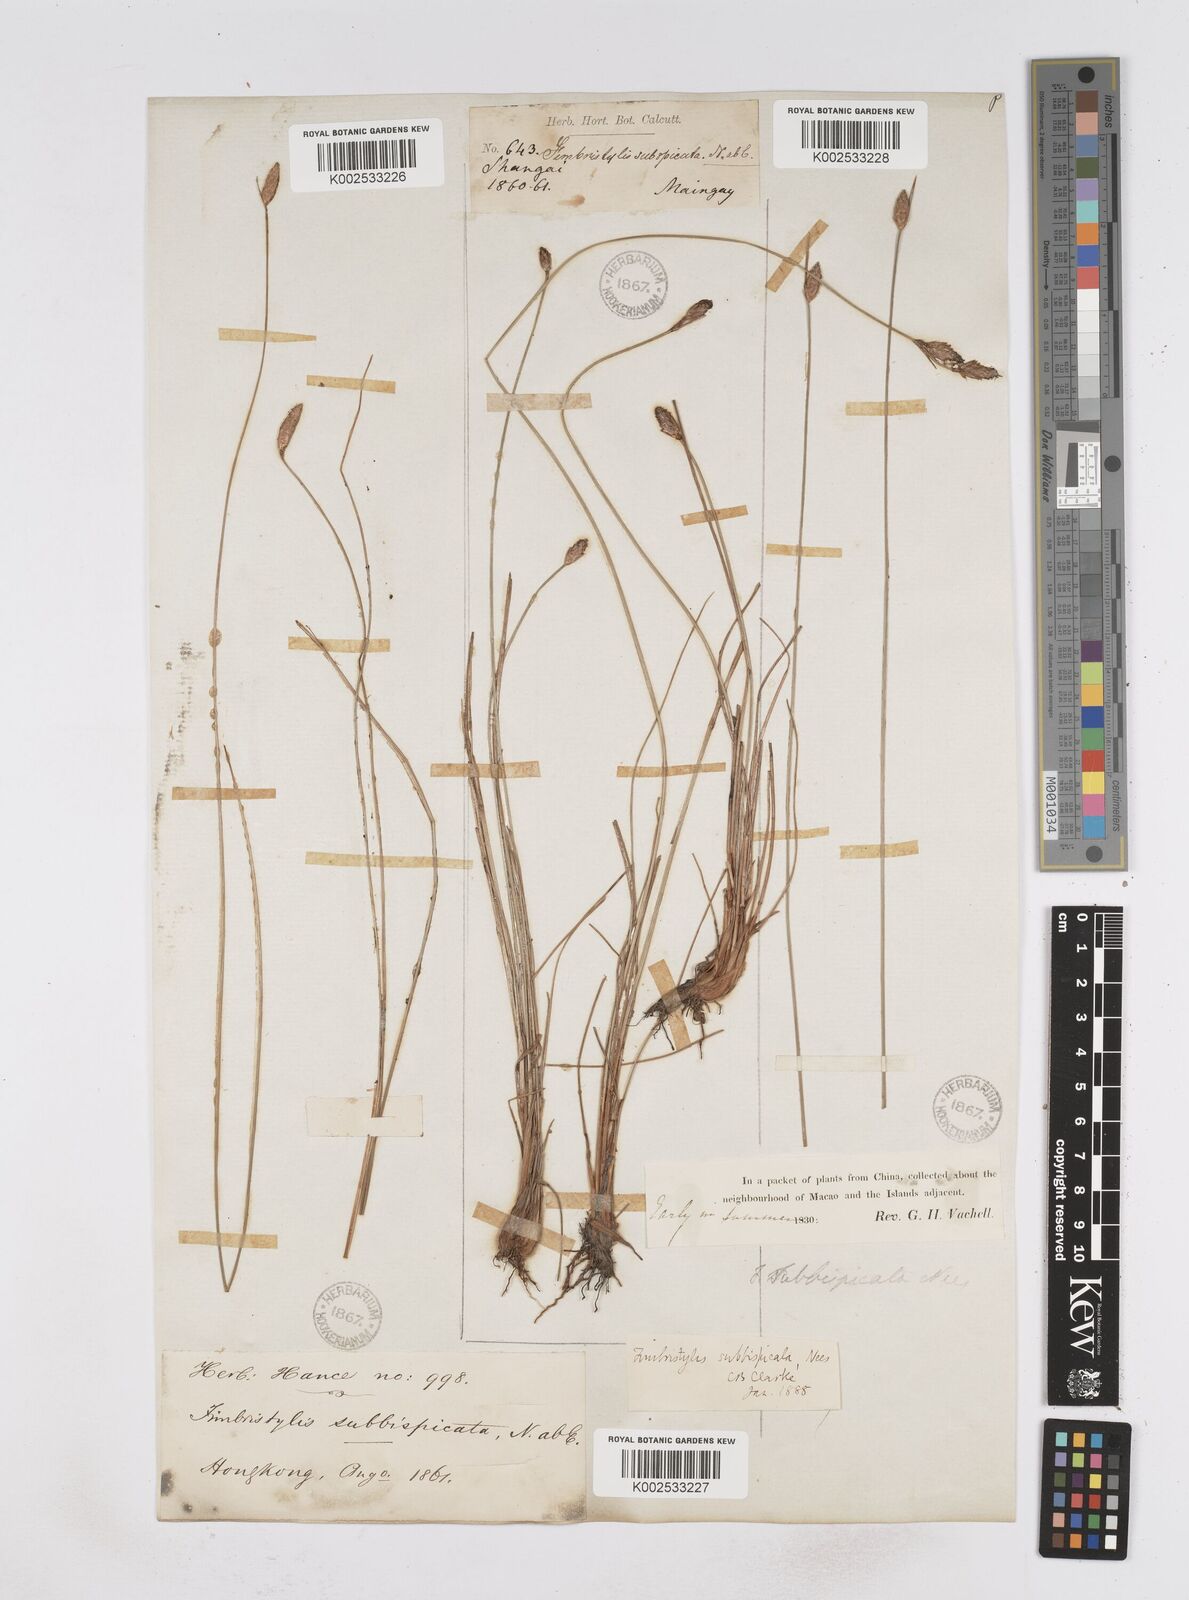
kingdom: Plantae
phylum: Tracheophyta
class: Liliopsida
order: Poales
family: Cyperaceae
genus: Fimbristylis
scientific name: Fimbristylis tristachya
